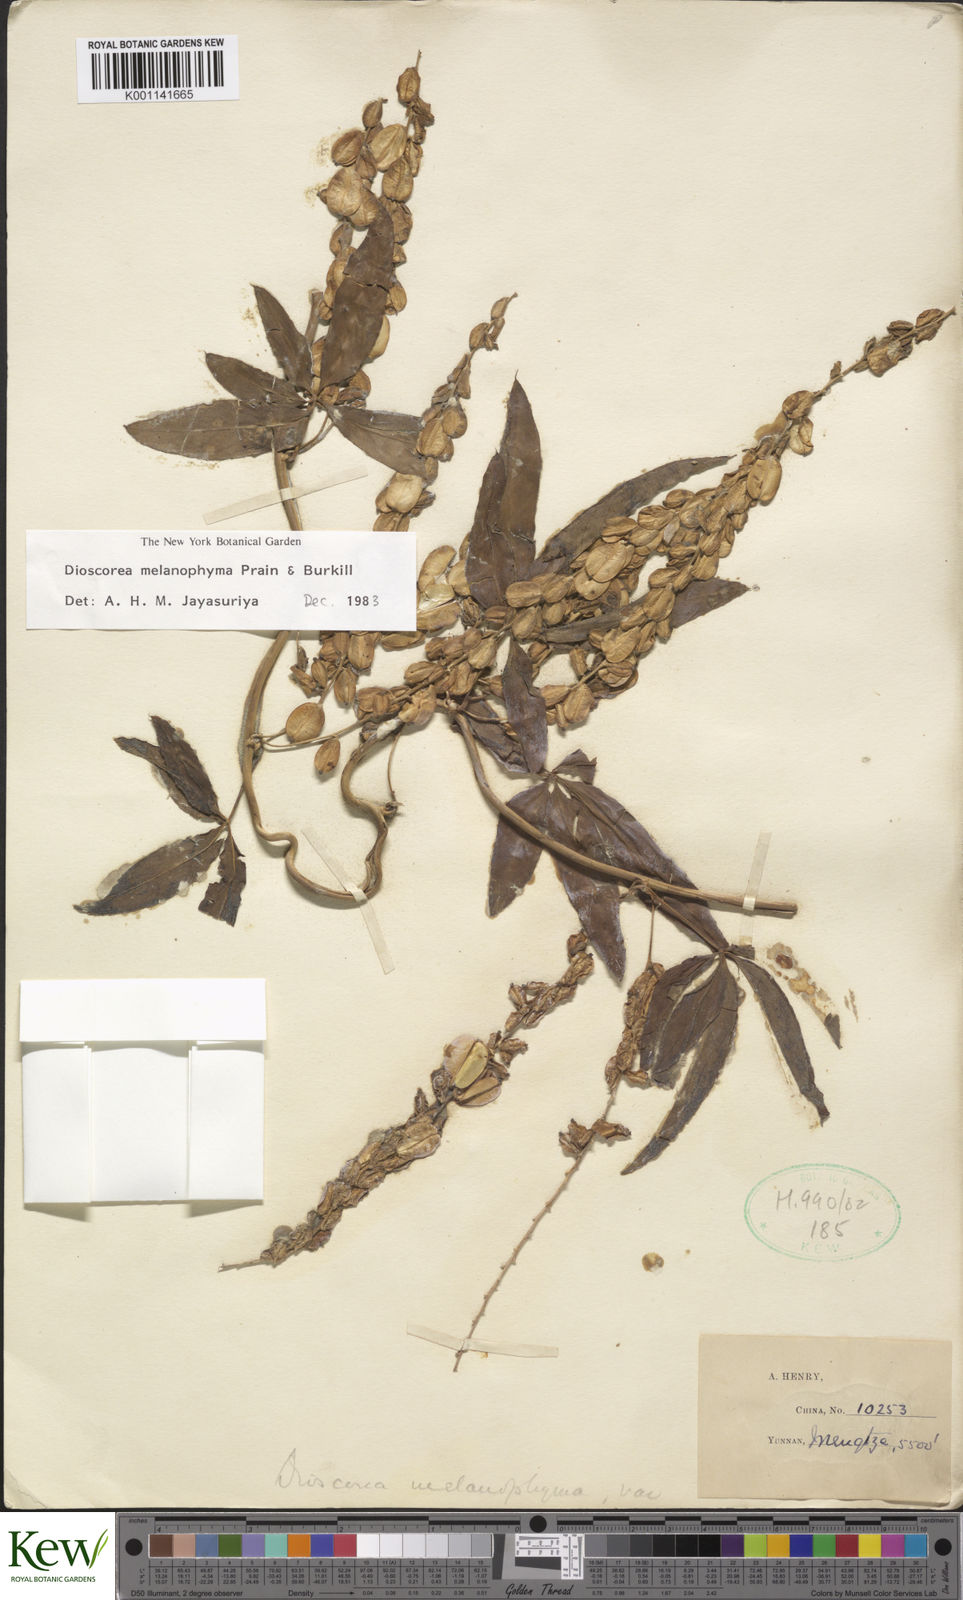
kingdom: Plantae
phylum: Tracheophyta
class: Liliopsida
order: Dioscoreales
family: Dioscoreaceae
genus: Dioscorea
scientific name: Dioscorea melanophyma
